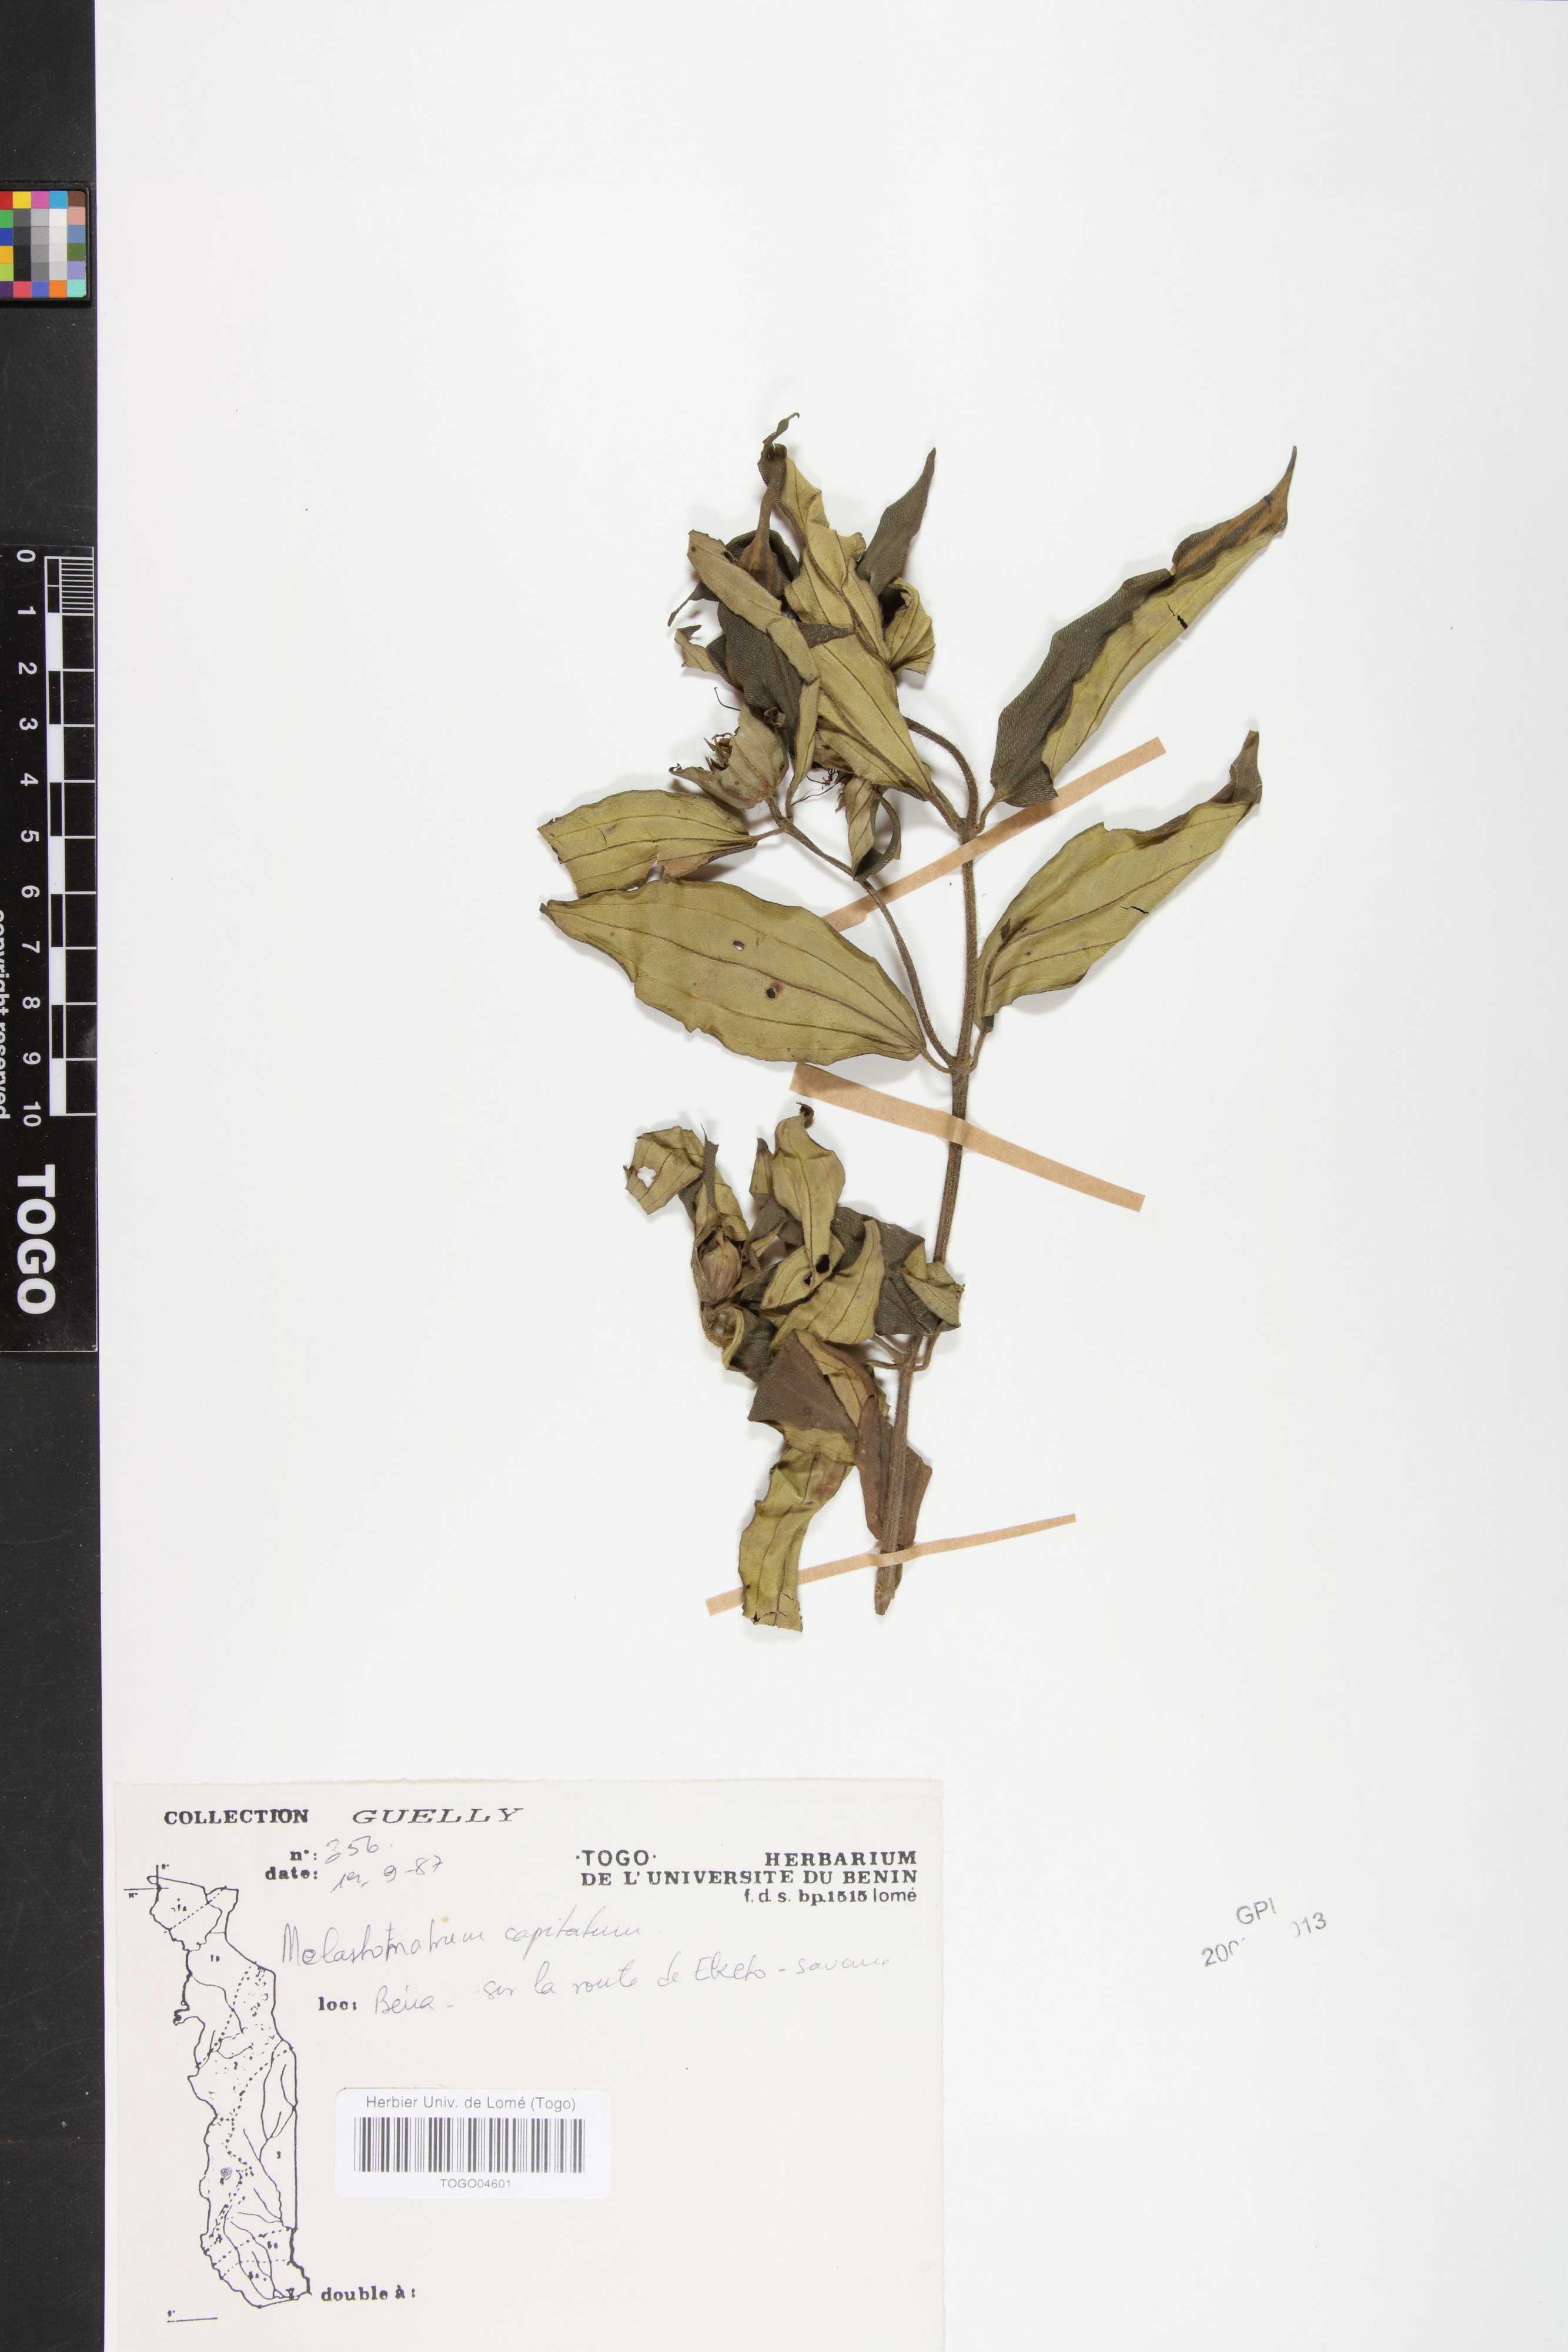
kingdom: Plantae
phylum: Tracheophyta
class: Magnoliopsida
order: Myrtales
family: Melastomataceae
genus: Melastomastrum
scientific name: Melastomastrum capitatum
